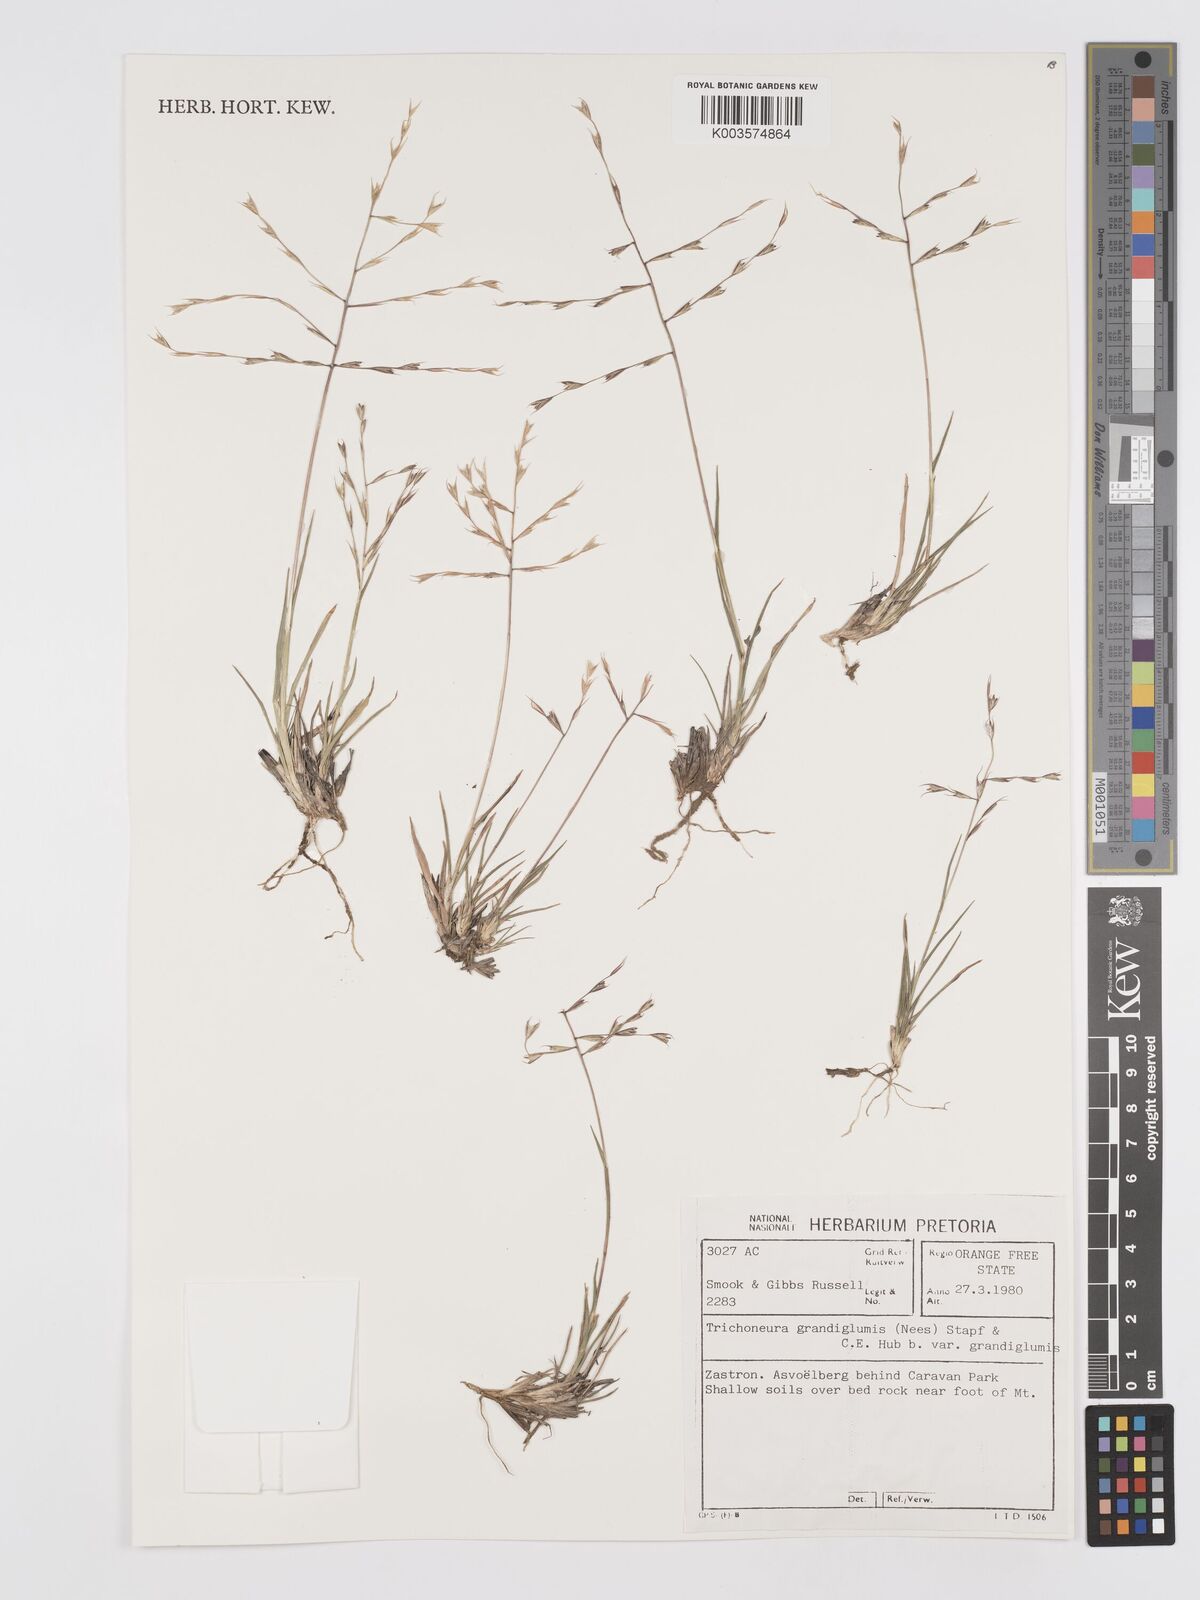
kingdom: Plantae
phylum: Tracheophyta
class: Liliopsida
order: Poales
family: Poaceae
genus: Trichoneura
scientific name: Trichoneura grandiglumis
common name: Rolling grass
